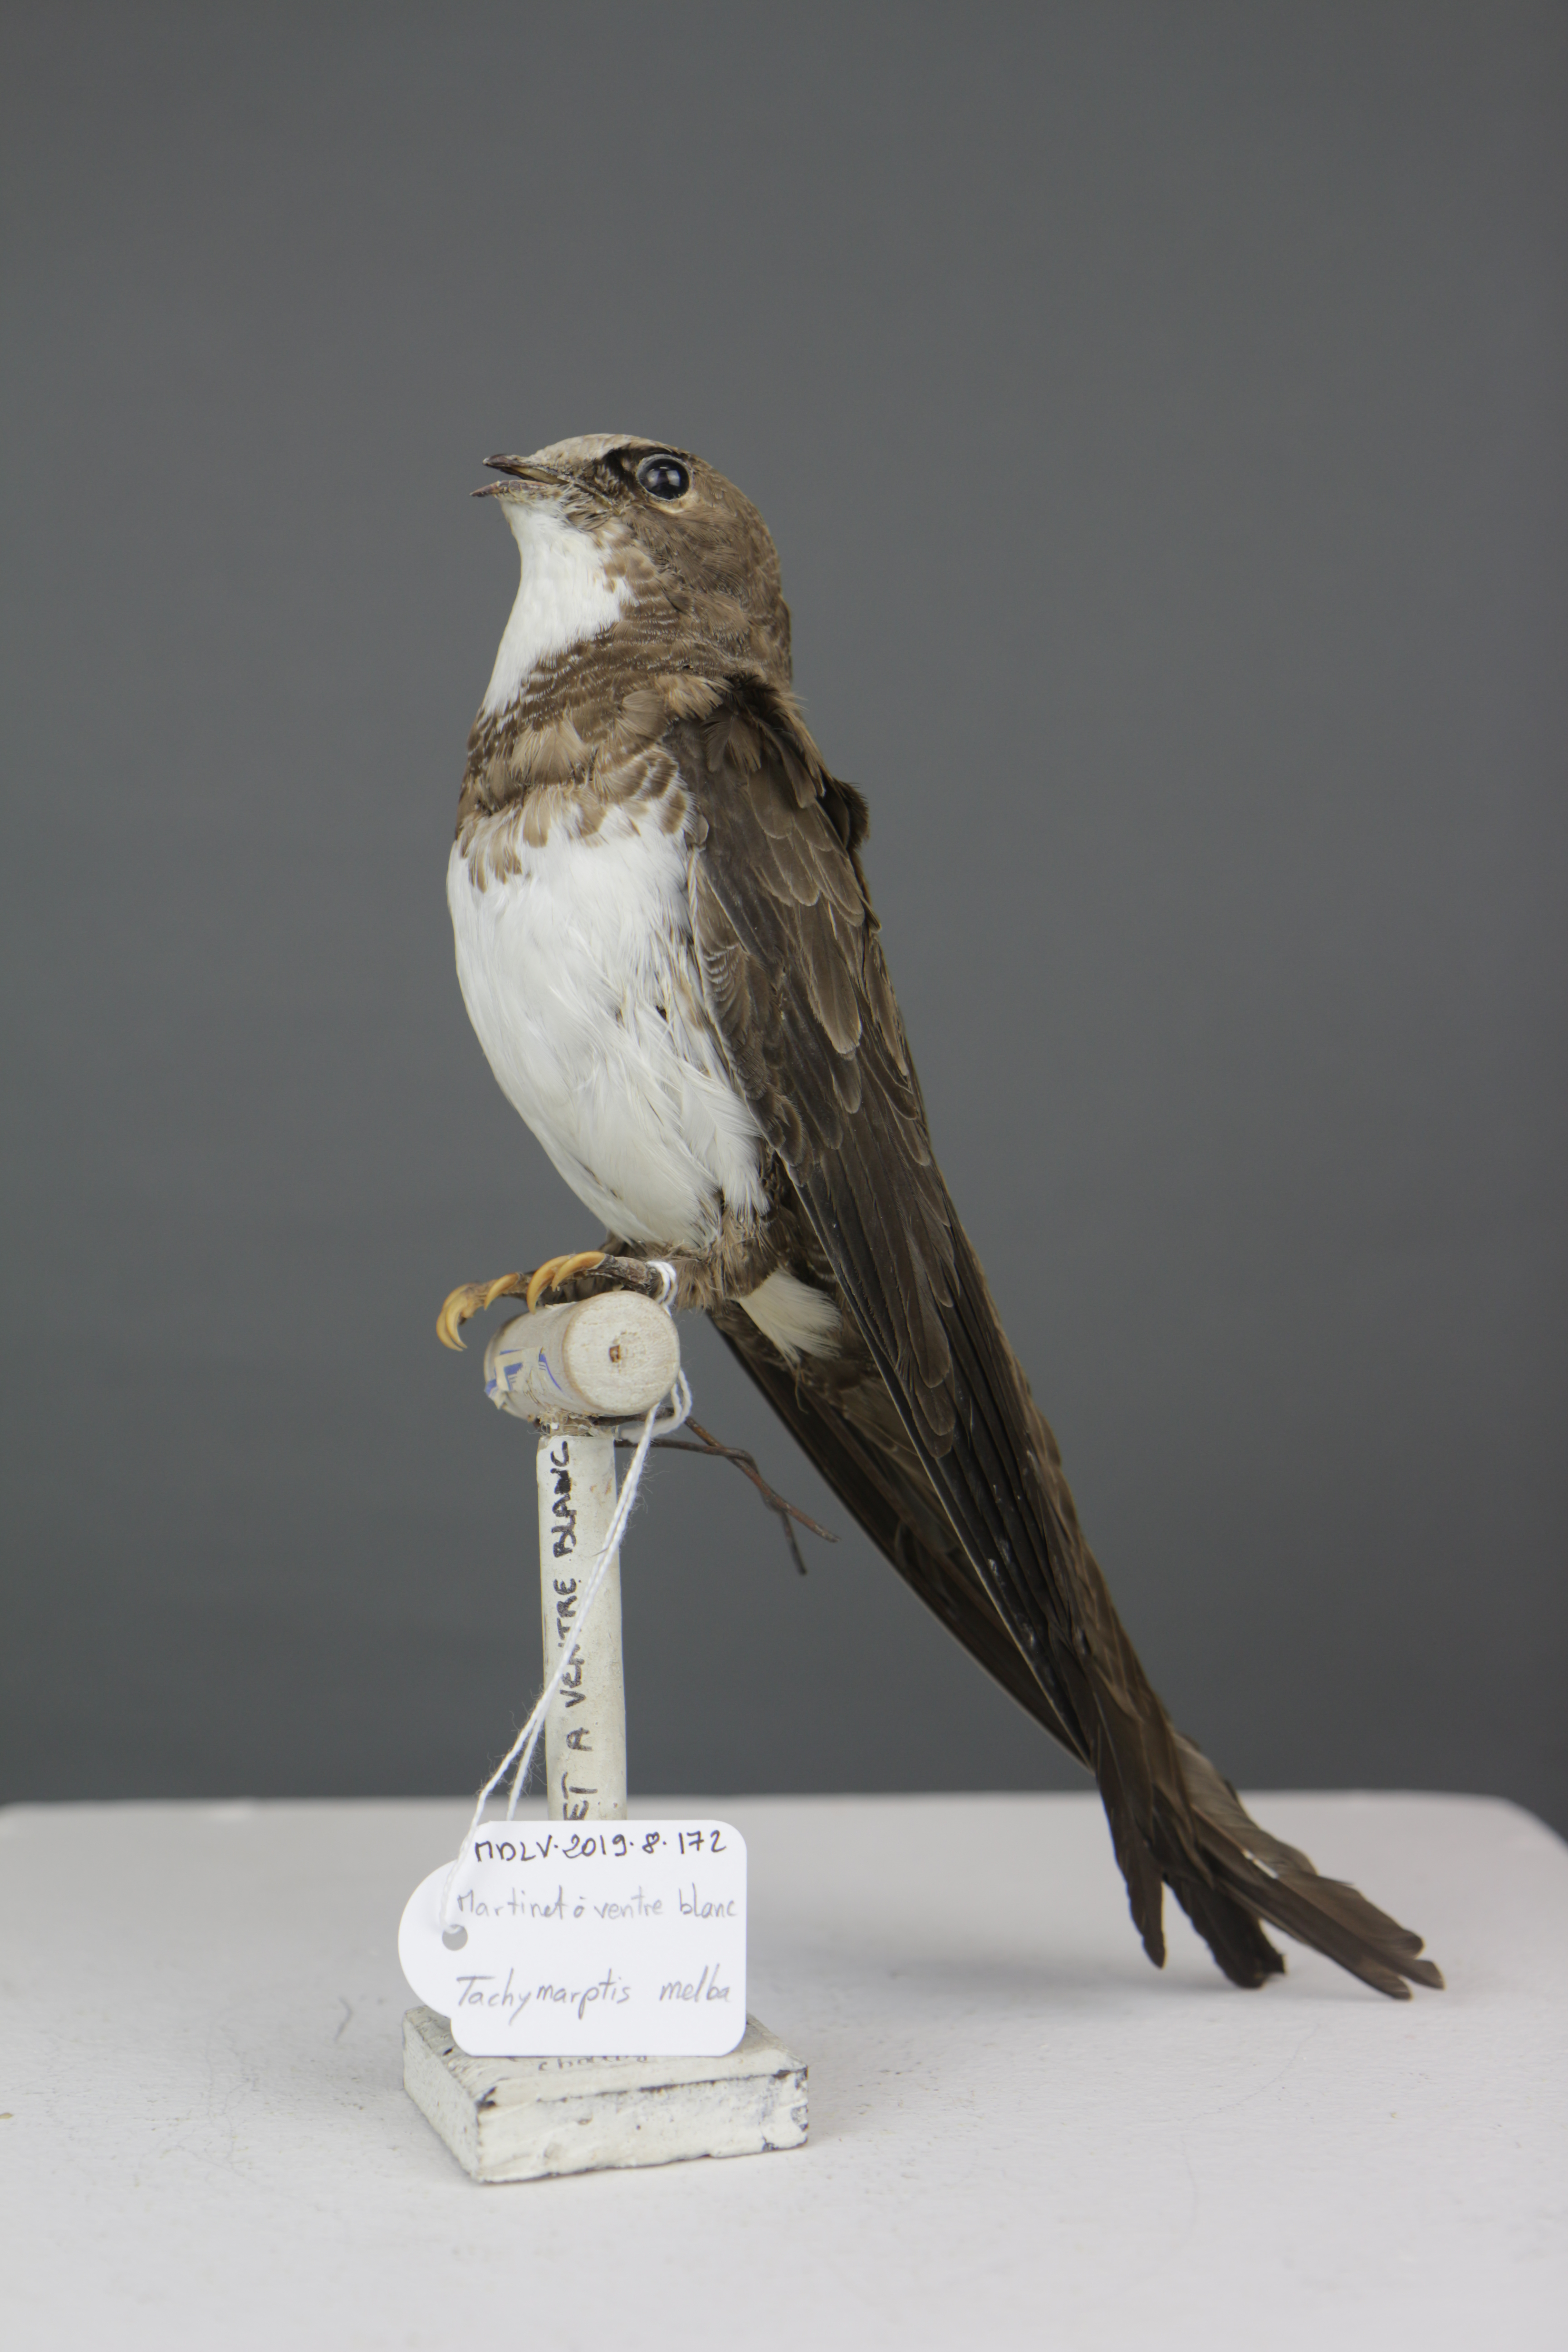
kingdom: Animalia
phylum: Chordata
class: Aves
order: Apodiformes
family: Apodidae
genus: Tachymarptis
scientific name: Tachymarptis melba
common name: Alpine swift
